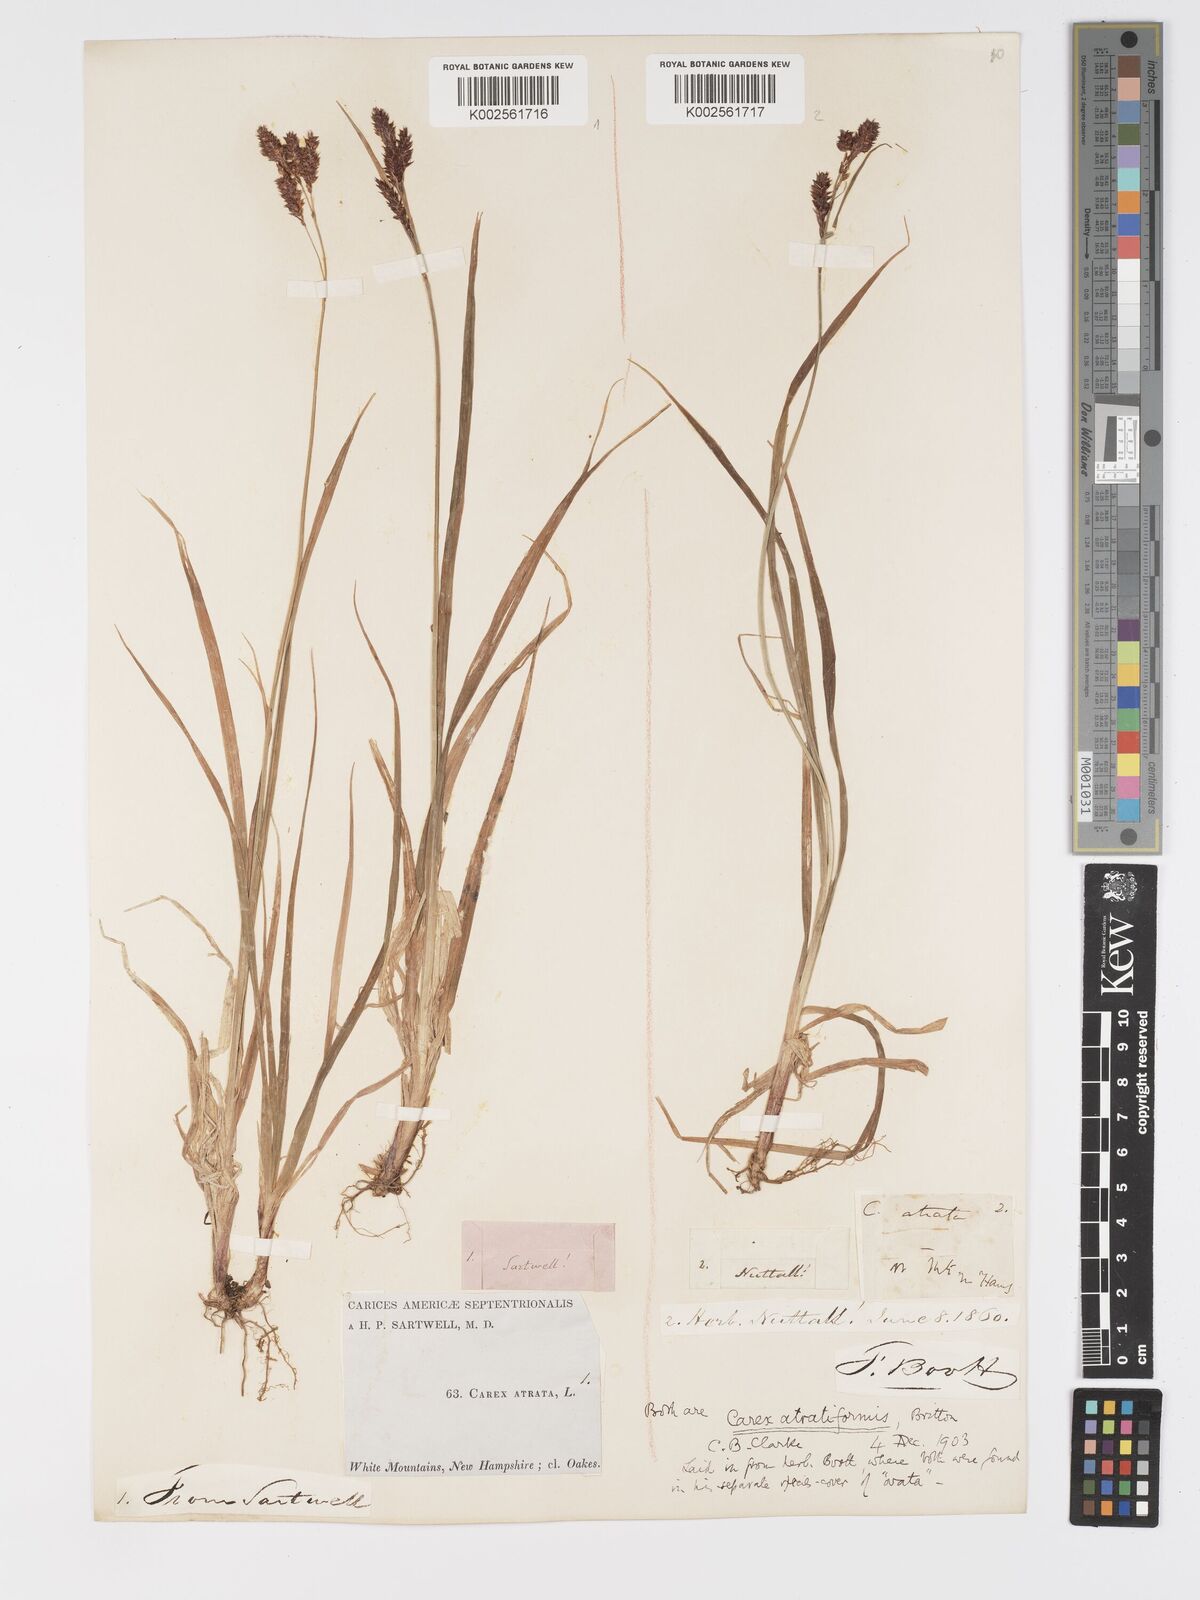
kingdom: Plantae
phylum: Tracheophyta
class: Liliopsida
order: Poales
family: Cyperaceae
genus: Carex
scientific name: Carex atratiformis
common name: Black sedge
